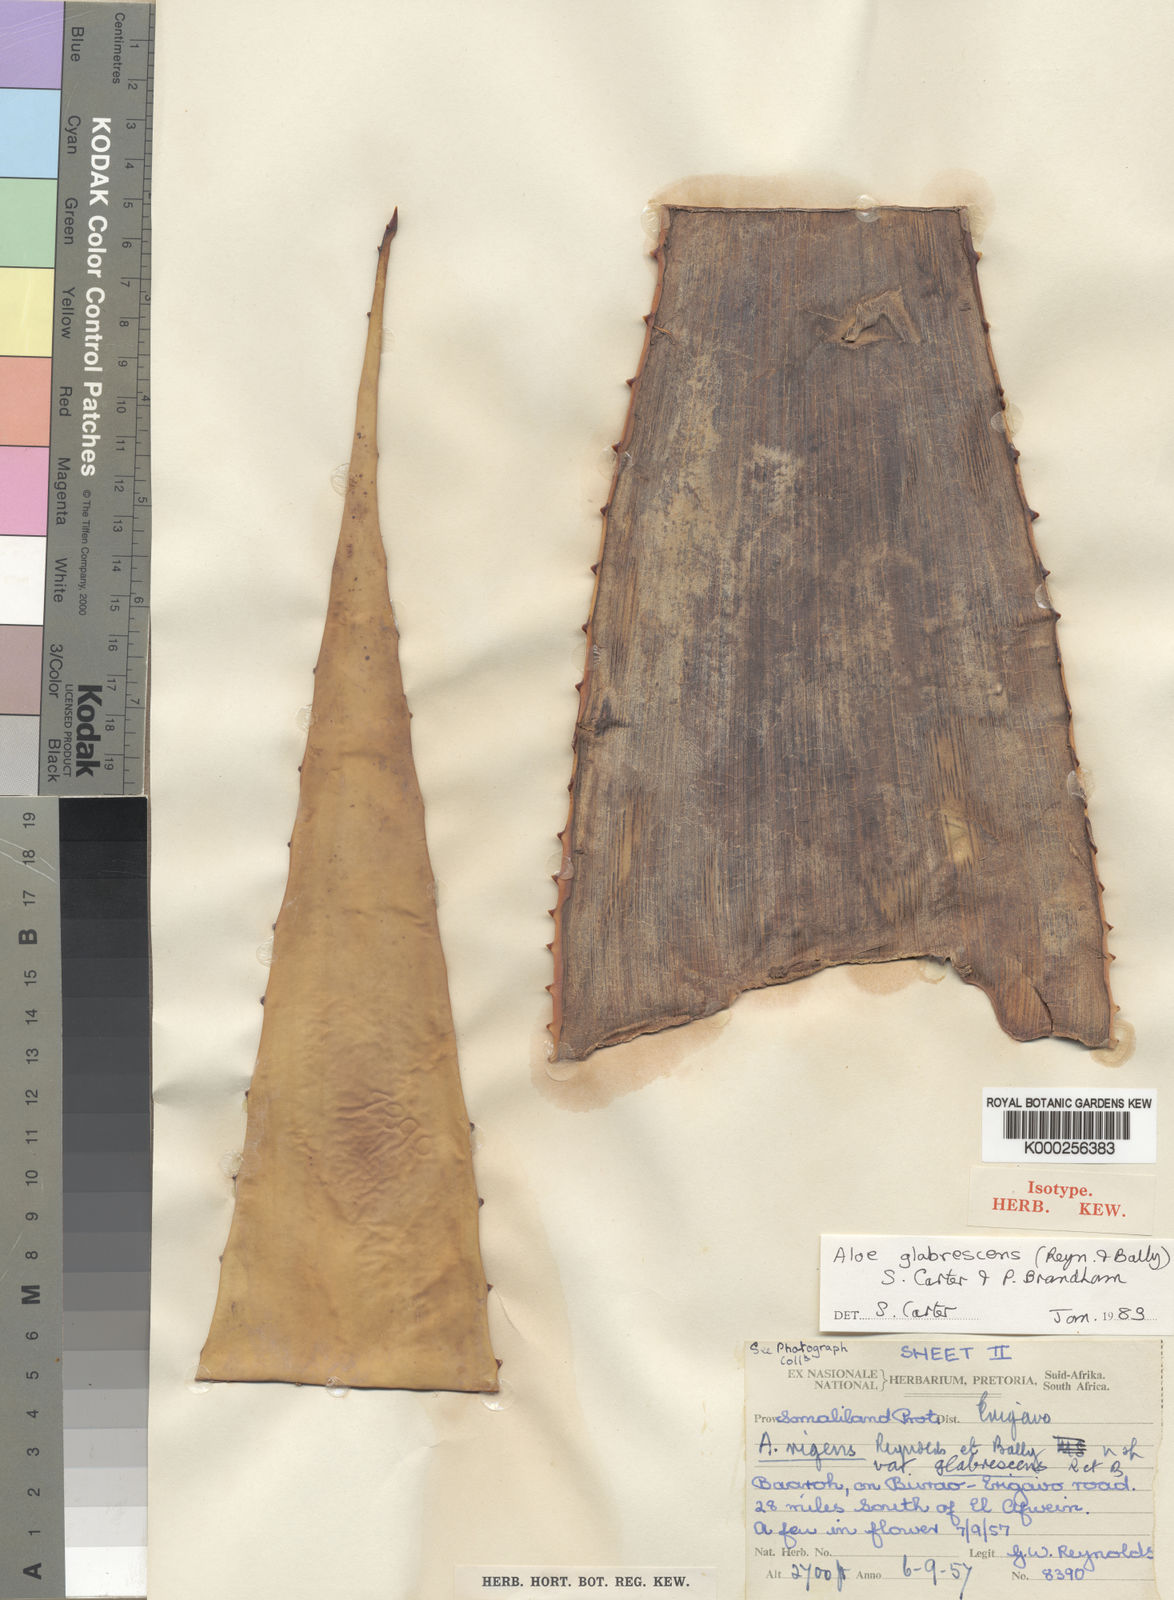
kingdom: Plantae
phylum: Tracheophyta
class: Liliopsida
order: Asparagales
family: Asphodelaceae
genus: Aloe
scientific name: Aloe glabrescens
